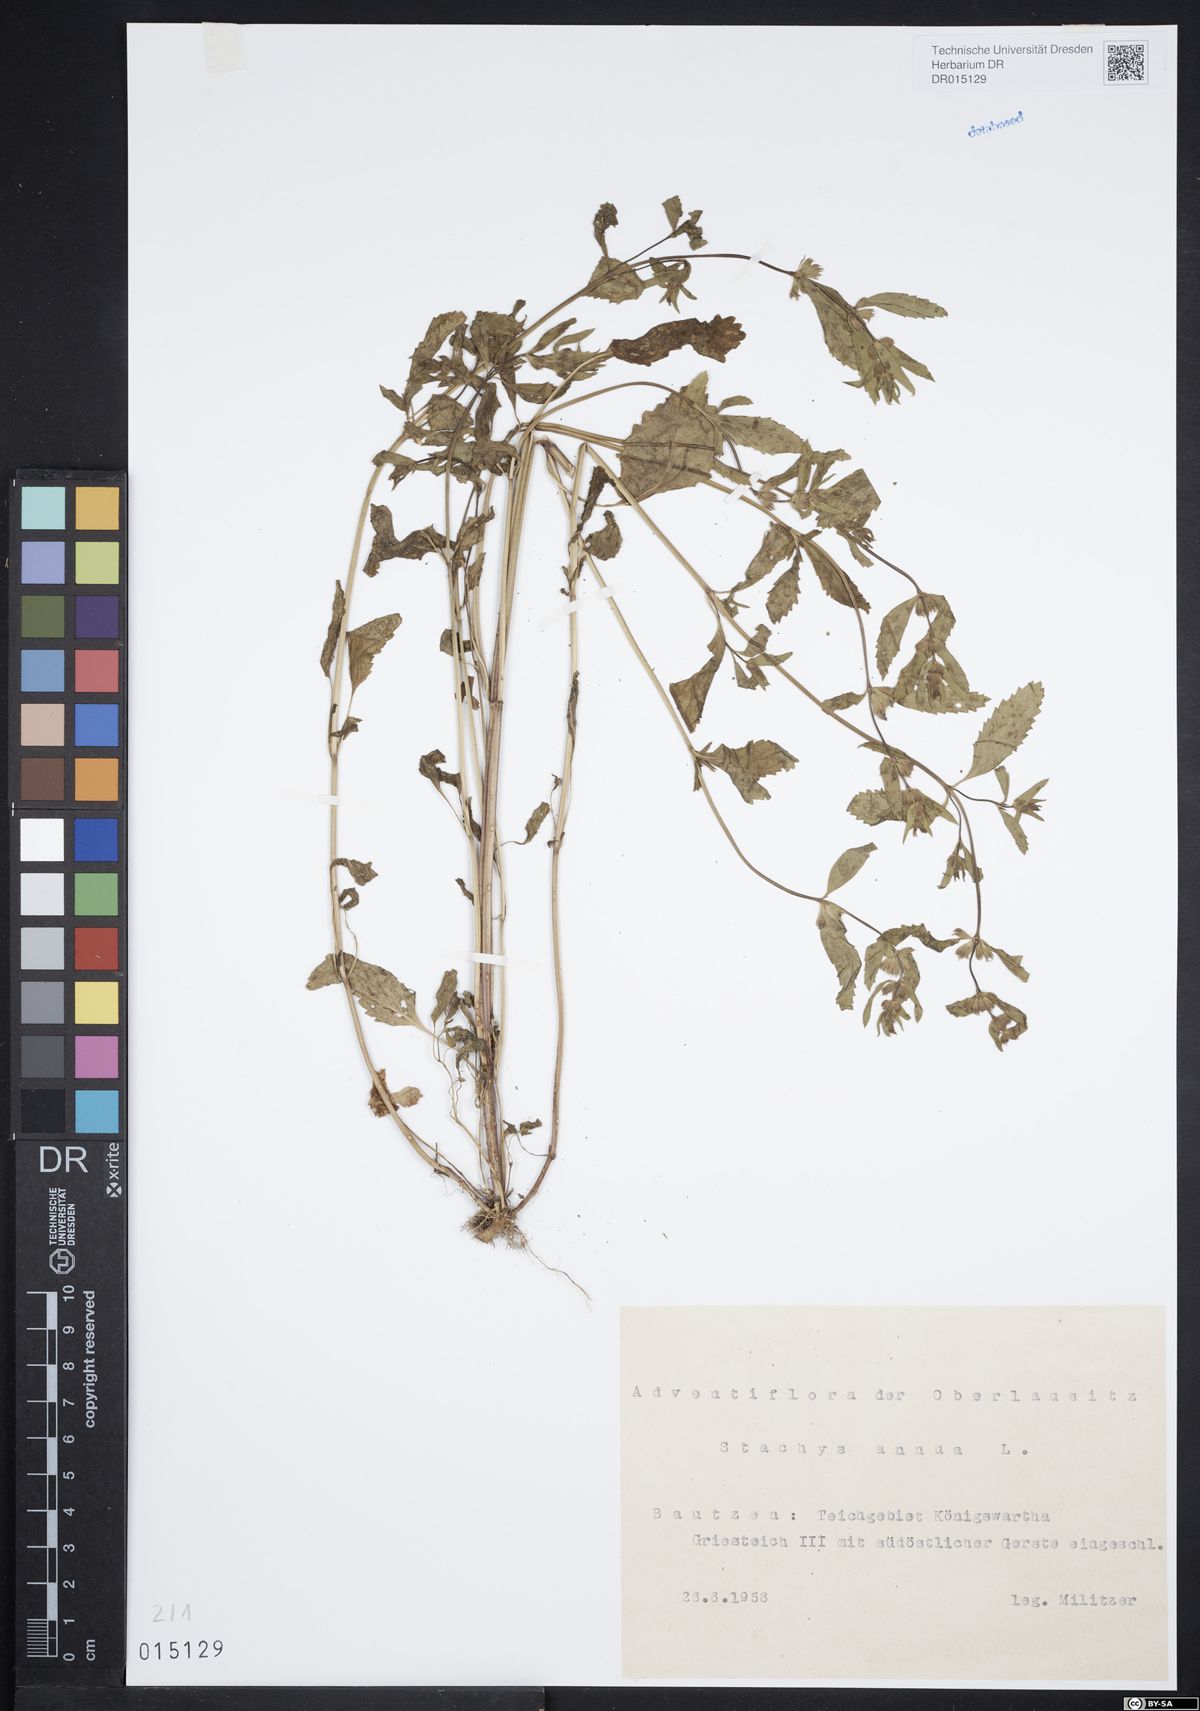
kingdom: Plantae
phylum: Tracheophyta
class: Magnoliopsida
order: Lamiales
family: Lamiaceae
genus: Stachys
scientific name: Stachys annua
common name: Annual yellow-woundwort
